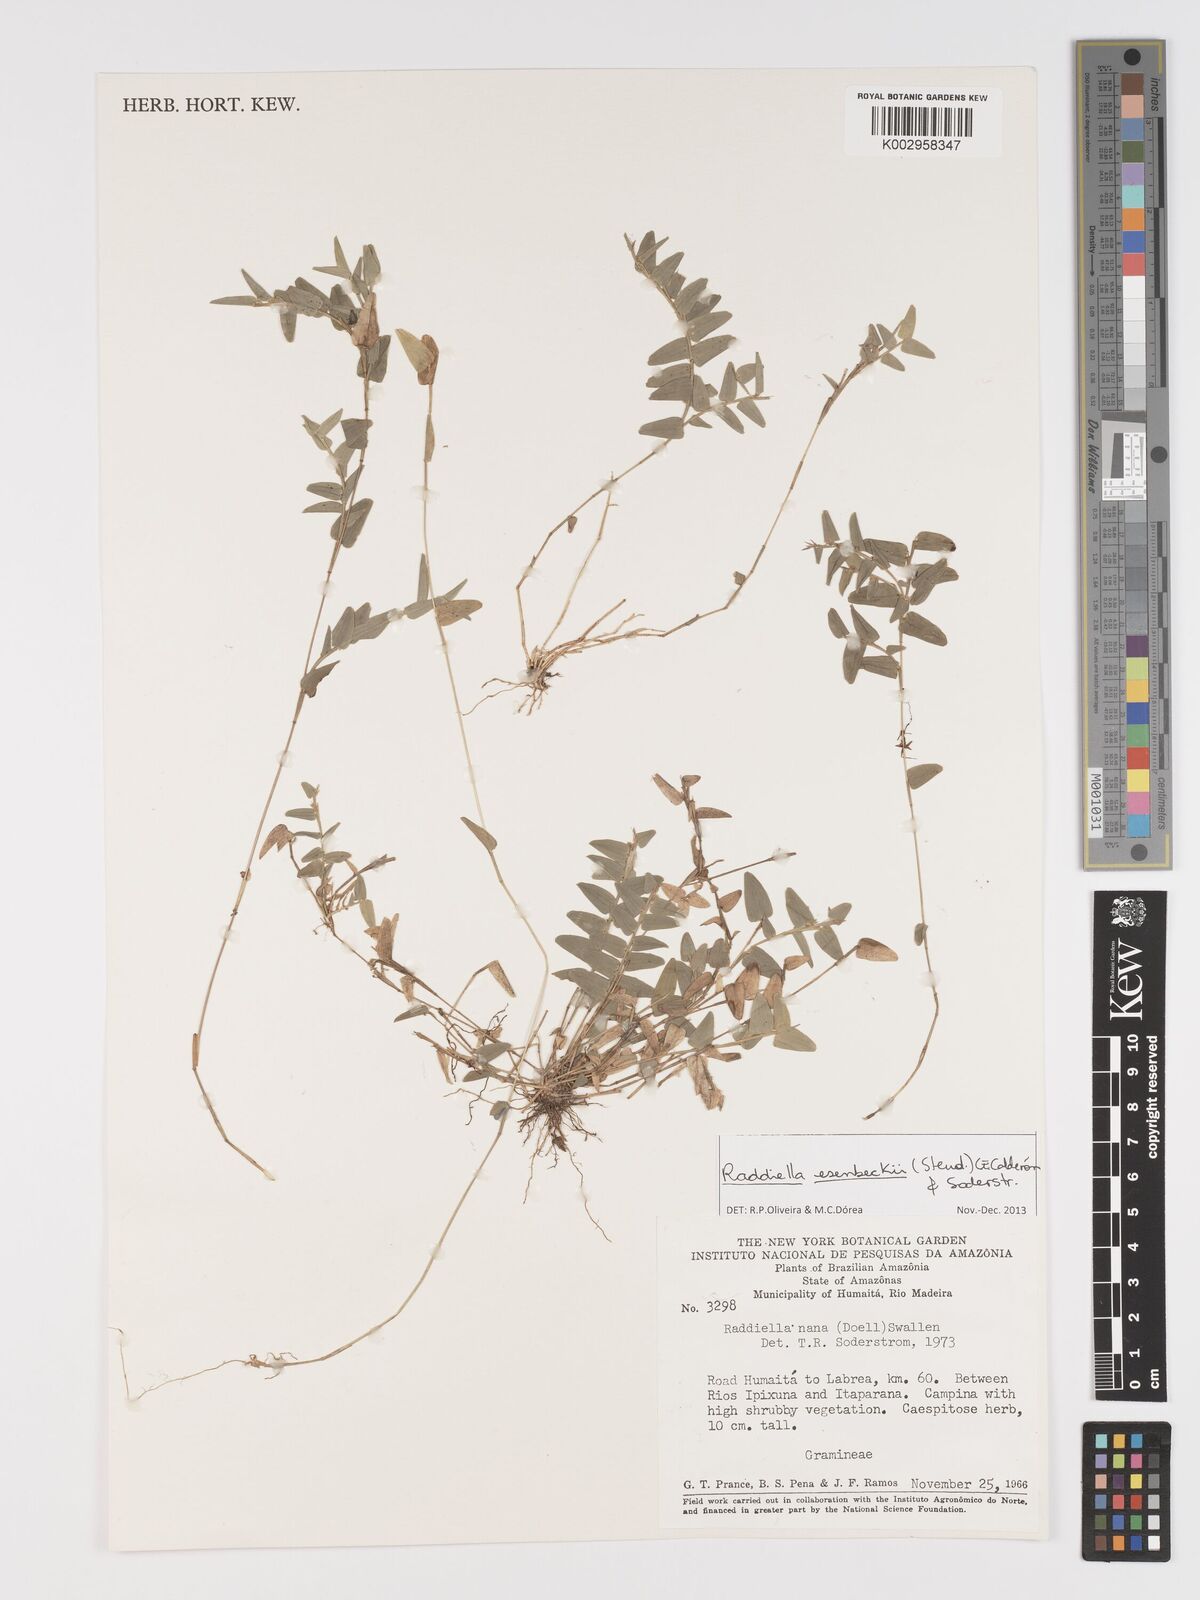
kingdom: Plantae
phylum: Tracheophyta
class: Liliopsida
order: Poales
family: Poaceae
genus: Raddiella
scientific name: Raddiella esenbeckii
